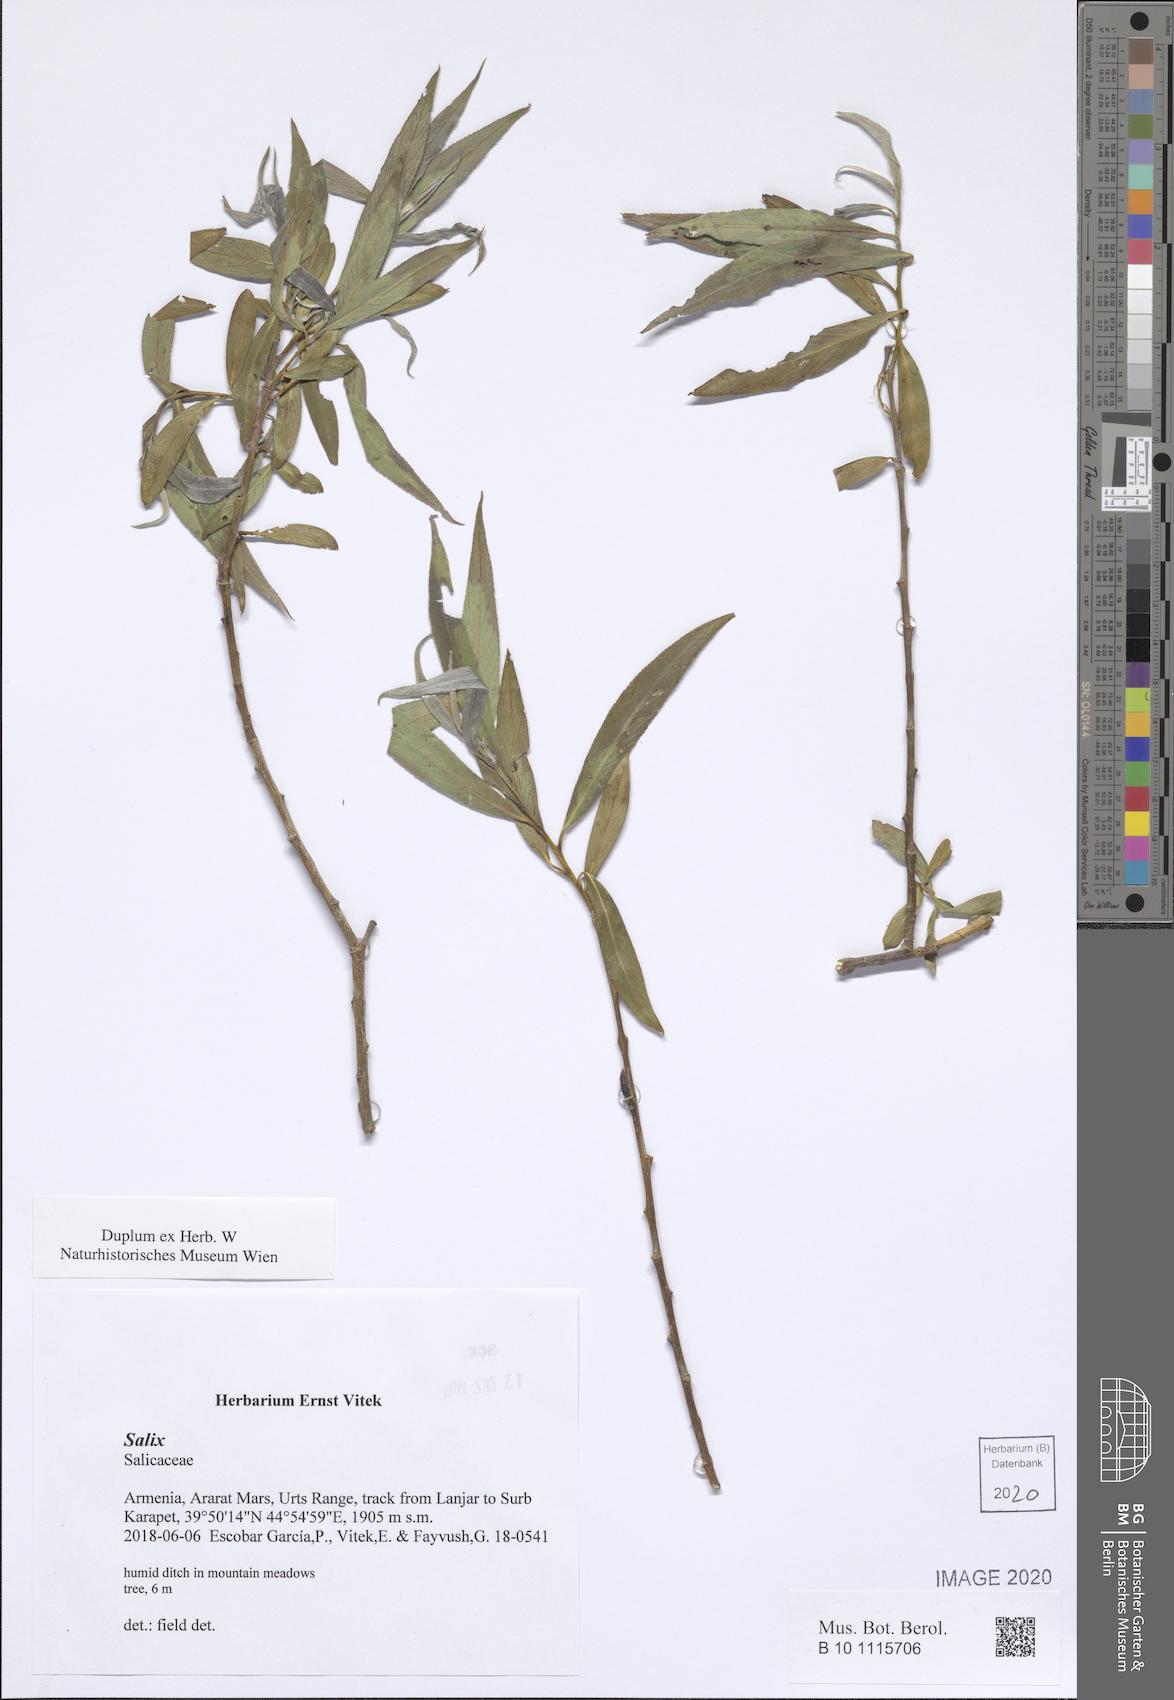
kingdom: Plantae
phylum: Tracheophyta
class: Magnoliopsida
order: Malpighiales
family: Salicaceae
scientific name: Salicaceae
